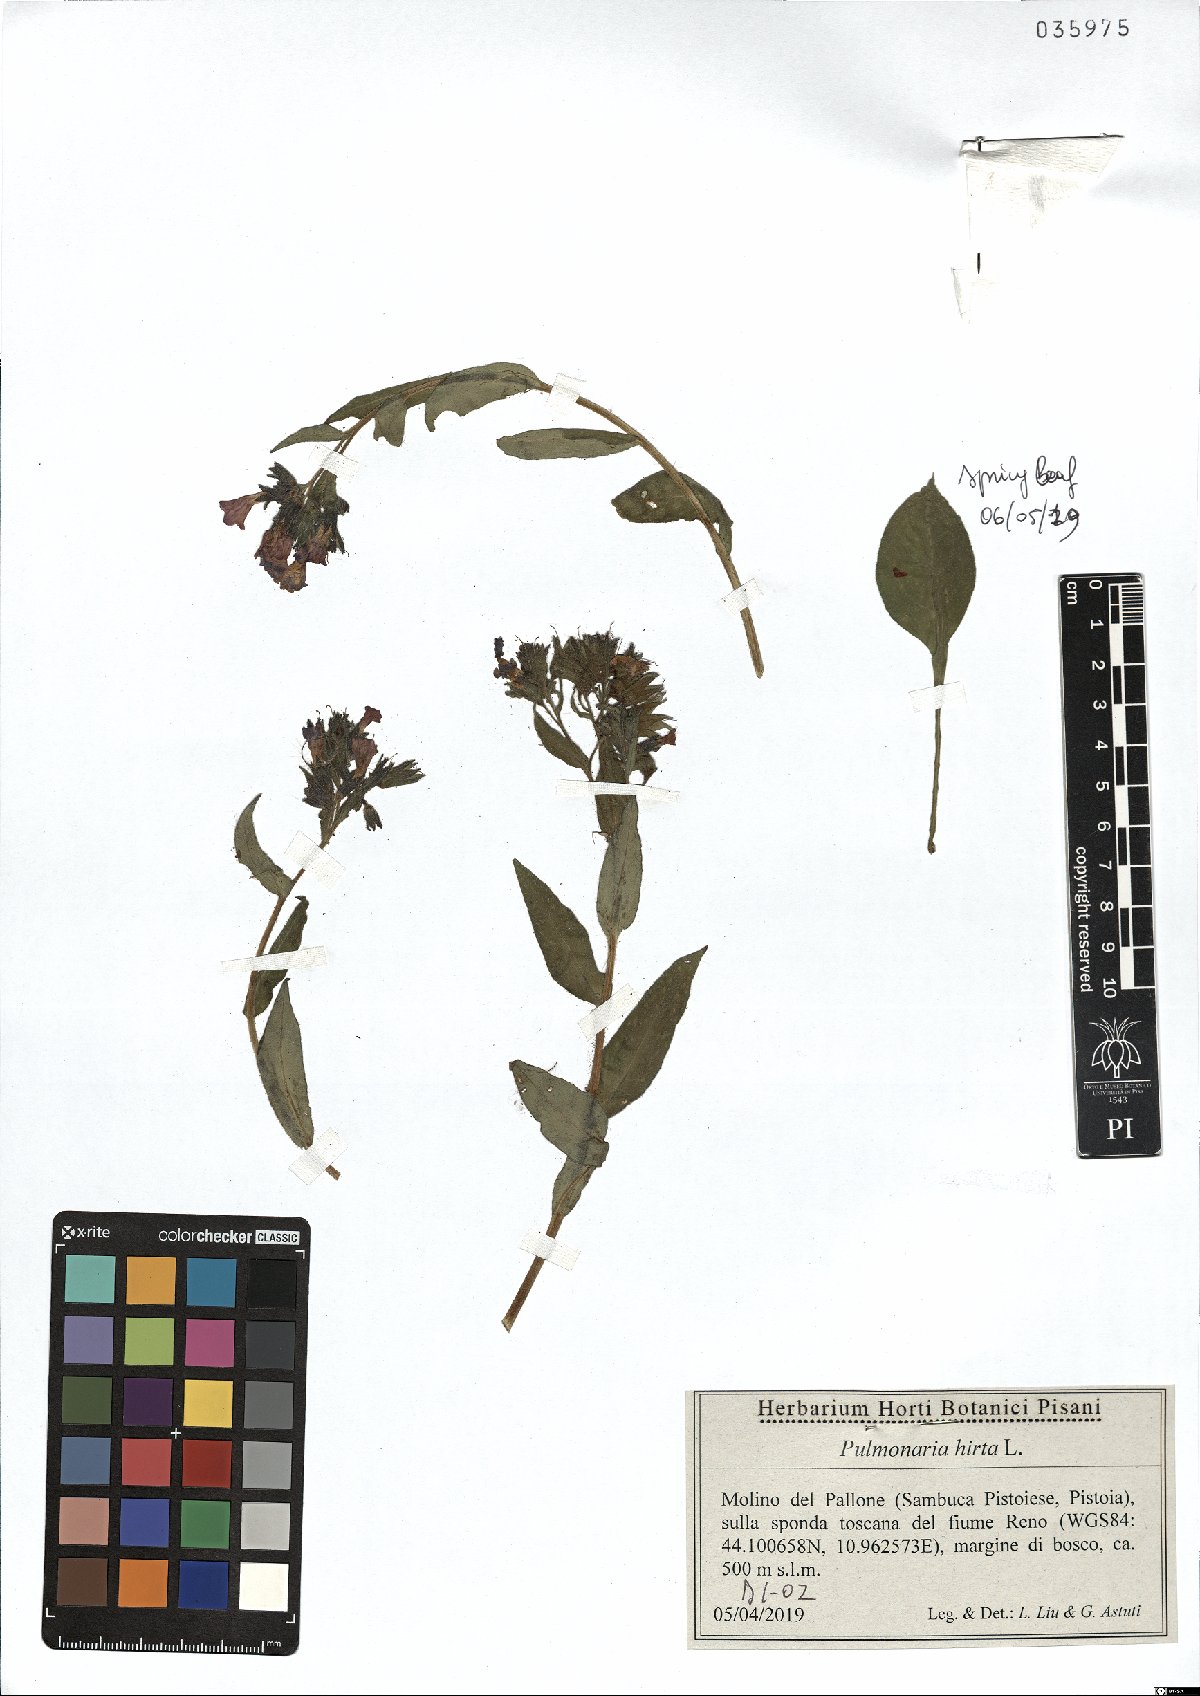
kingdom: Plantae
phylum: Tracheophyta
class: Magnoliopsida
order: Boraginales
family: Boraginaceae
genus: Pulmonaria
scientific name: Pulmonaria hirta
